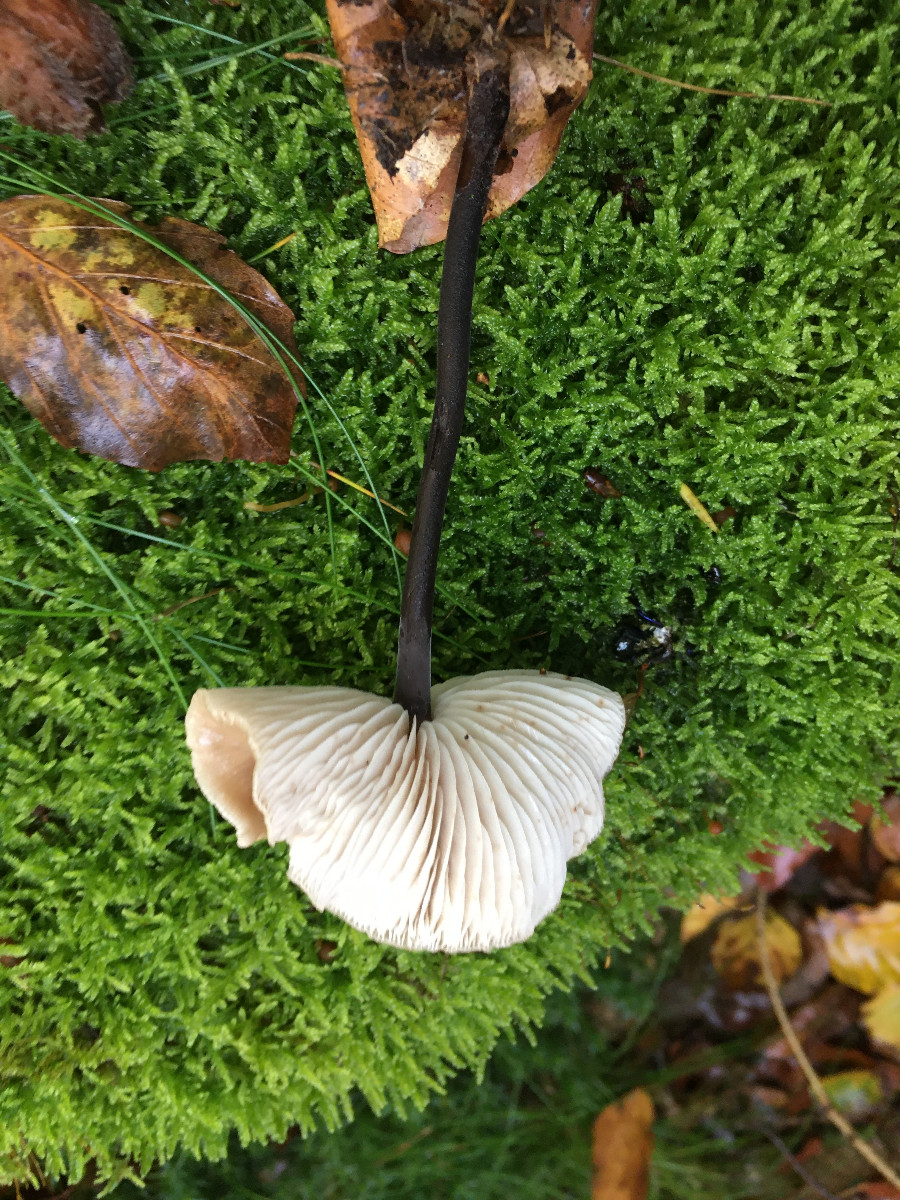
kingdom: Fungi
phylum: Basidiomycota
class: Agaricomycetes
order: Agaricales
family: Omphalotaceae
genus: Mycetinis
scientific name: Mycetinis alliaceus
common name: stor løghat
